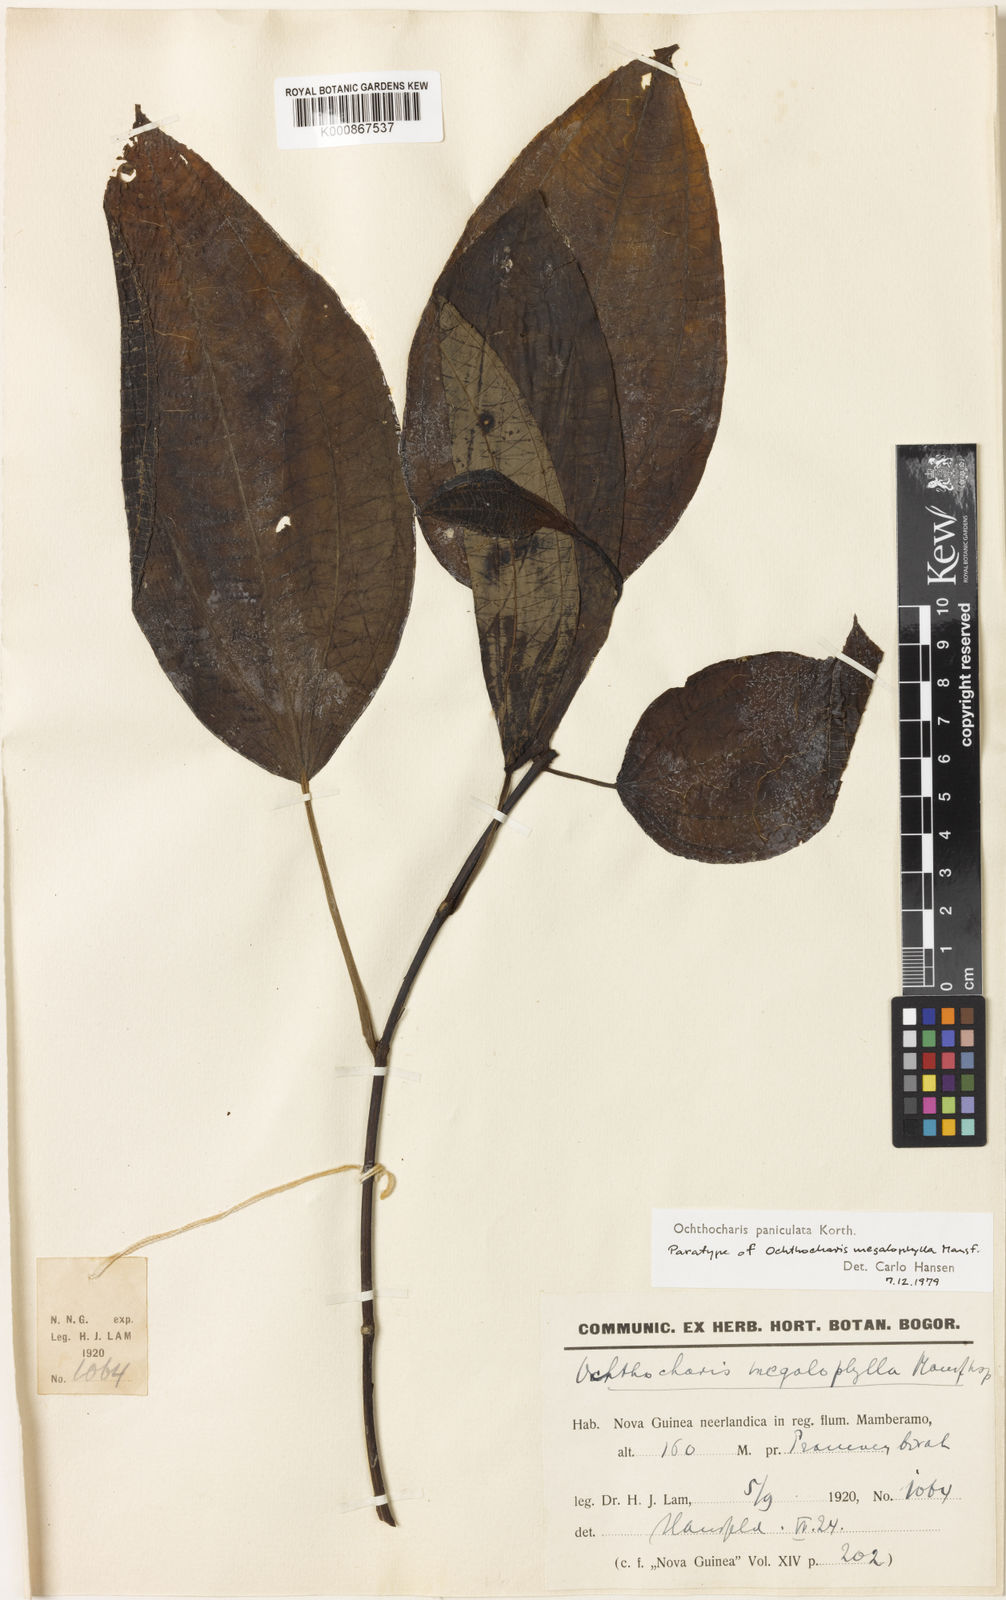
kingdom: Plantae
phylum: Tracheophyta
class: Magnoliopsida
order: Myrtales
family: Melastomataceae
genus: Ochthocharis
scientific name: Ochthocharis paniculata
